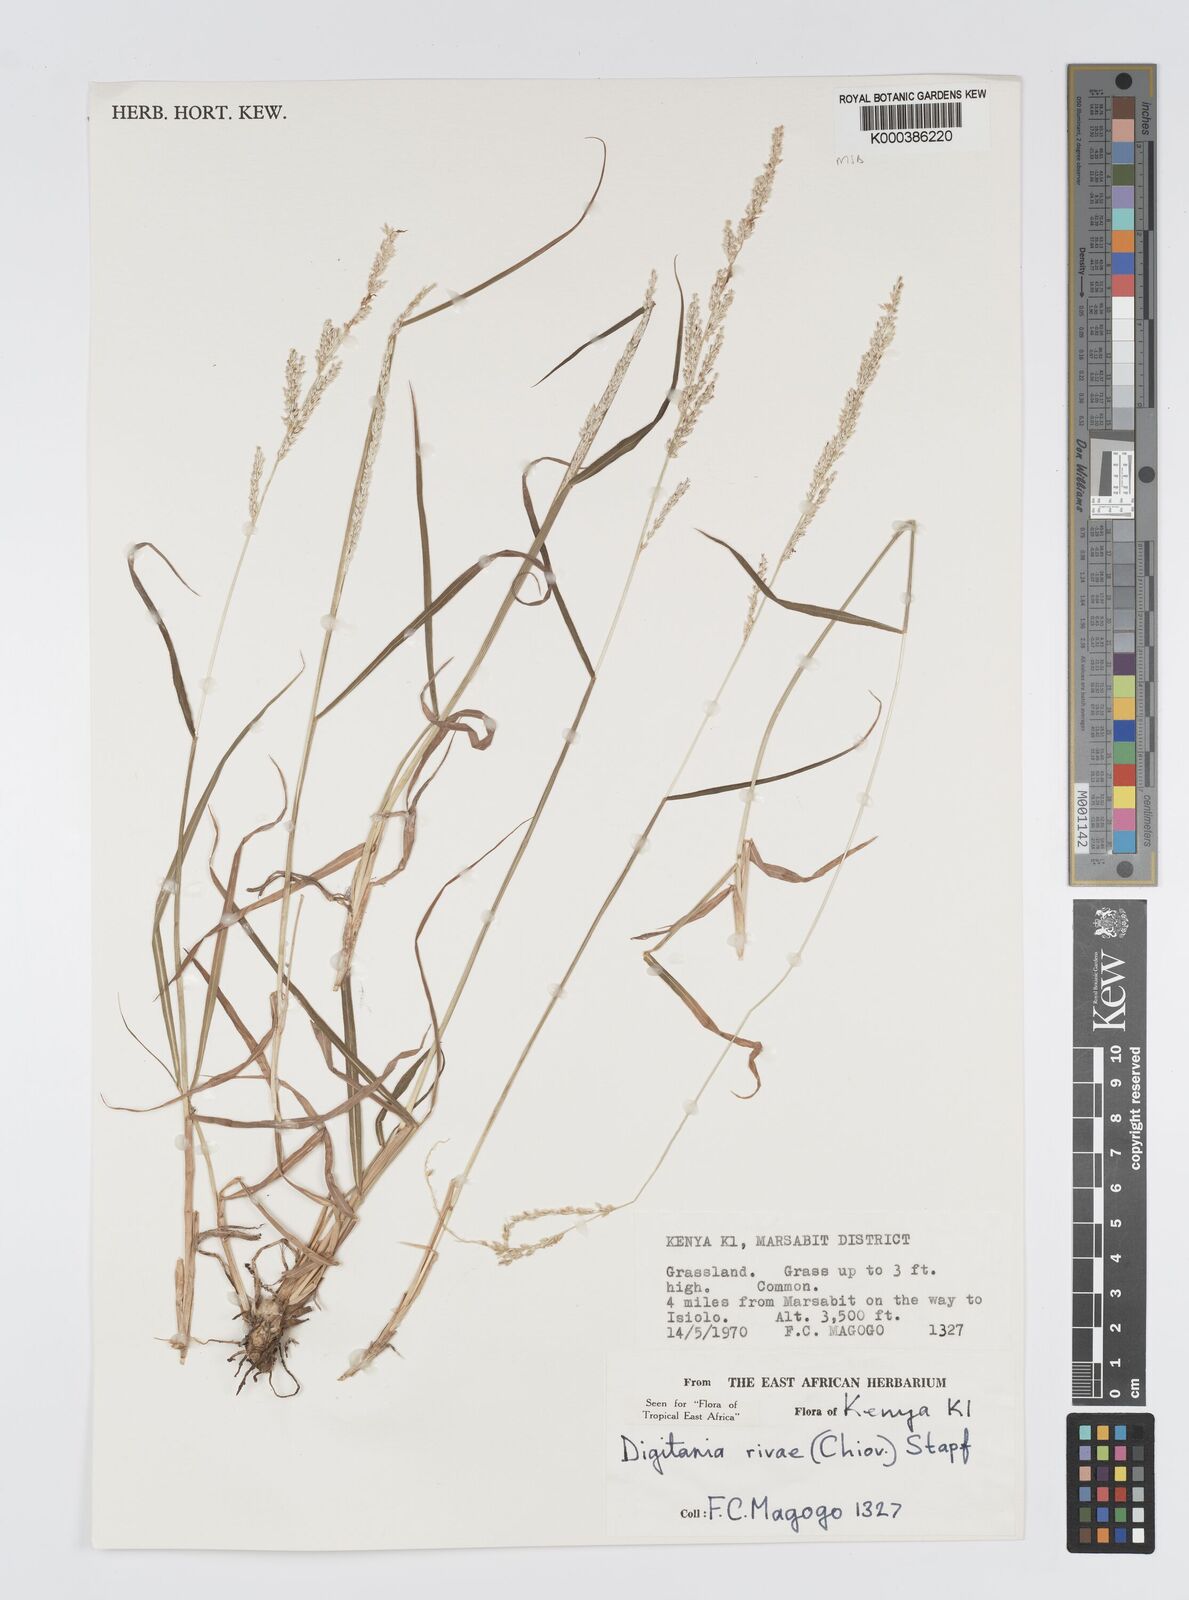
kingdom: Plantae
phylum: Tracheophyta
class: Liliopsida
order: Poales
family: Poaceae
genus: Digitaria
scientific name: Digitaria rivae
